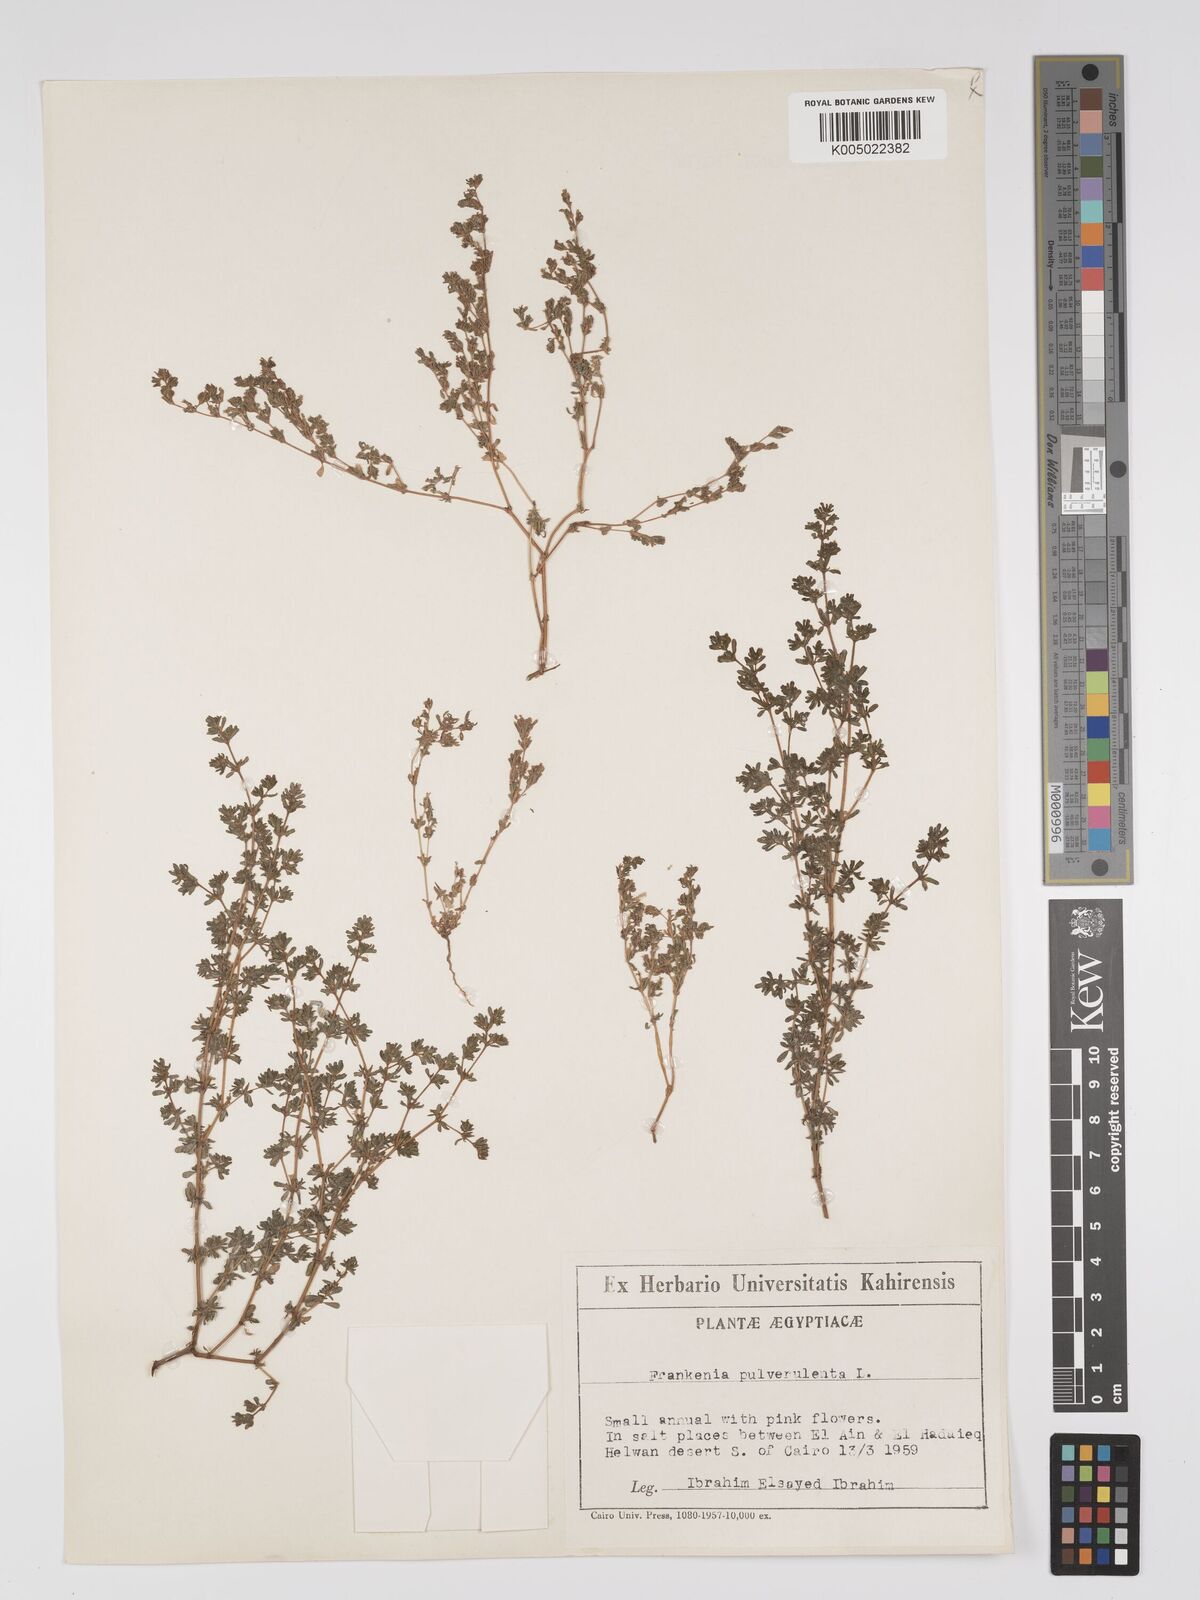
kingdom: Plantae
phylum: Tracheophyta
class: Magnoliopsida
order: Caryophyllales
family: Frankeniaceae
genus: Frankenia
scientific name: Frankenia pulverulenta
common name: European seaheath
